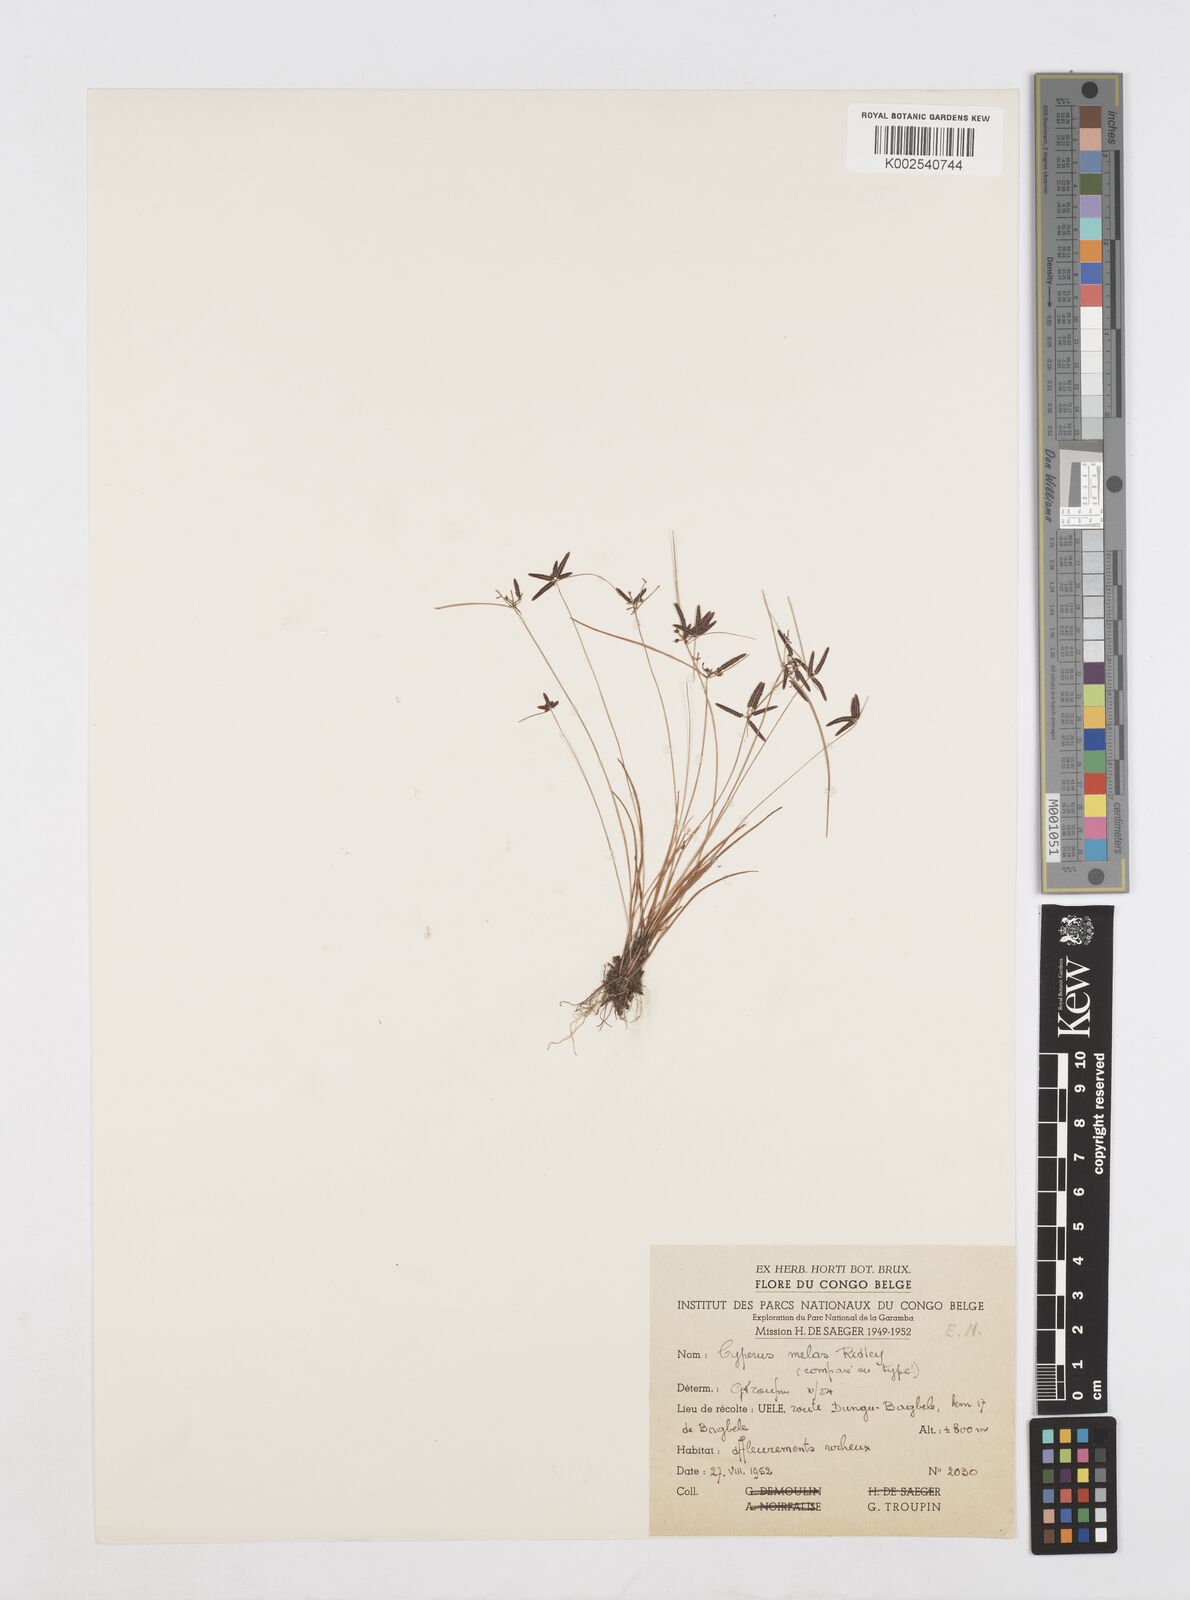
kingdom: Plantae
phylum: Tracheophyta
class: Liliopsida
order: Poales
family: Cyperaceae
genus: Cyperus
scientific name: Cyperus melas
